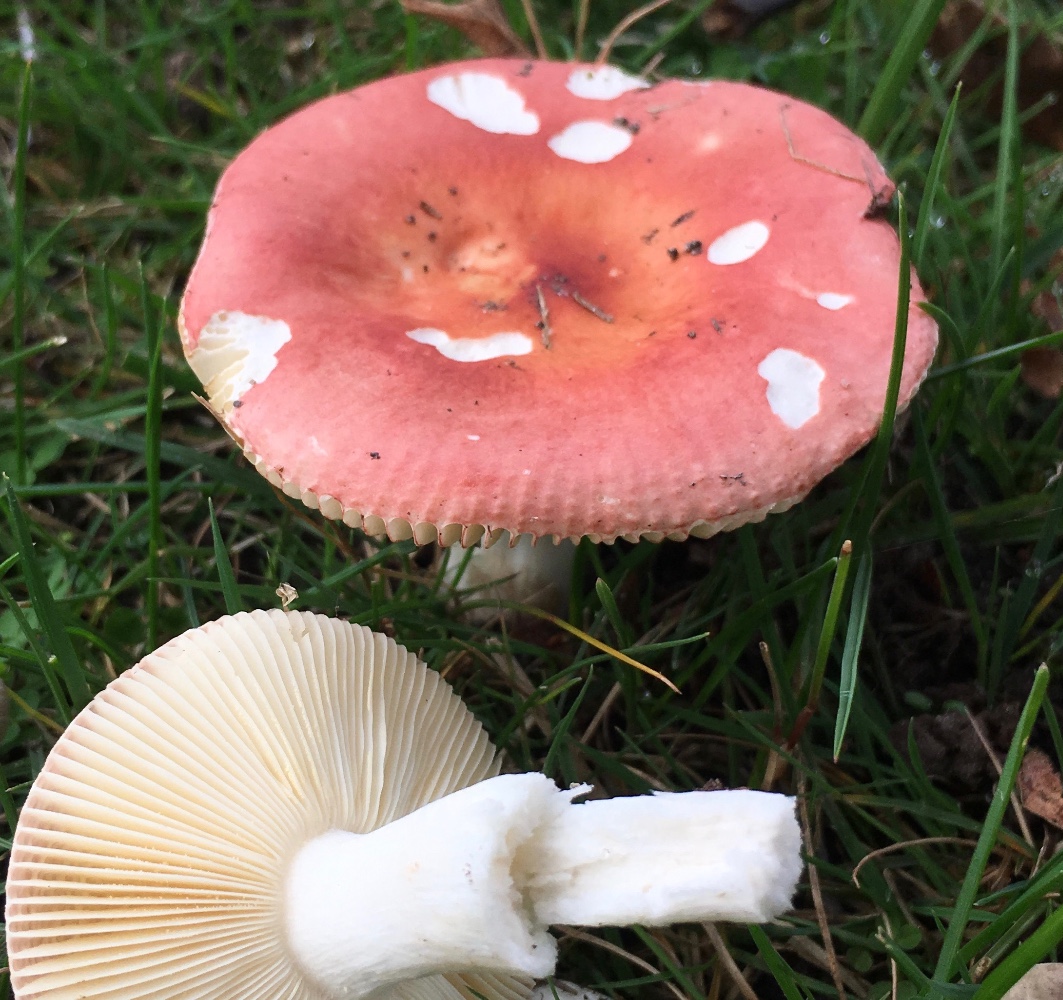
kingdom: Fungi
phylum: Basidiomycota
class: Agaricomycetes
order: Russulales
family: Russulaceae
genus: Russula
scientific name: Russula velenovskyi
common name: orangerød skørhat
